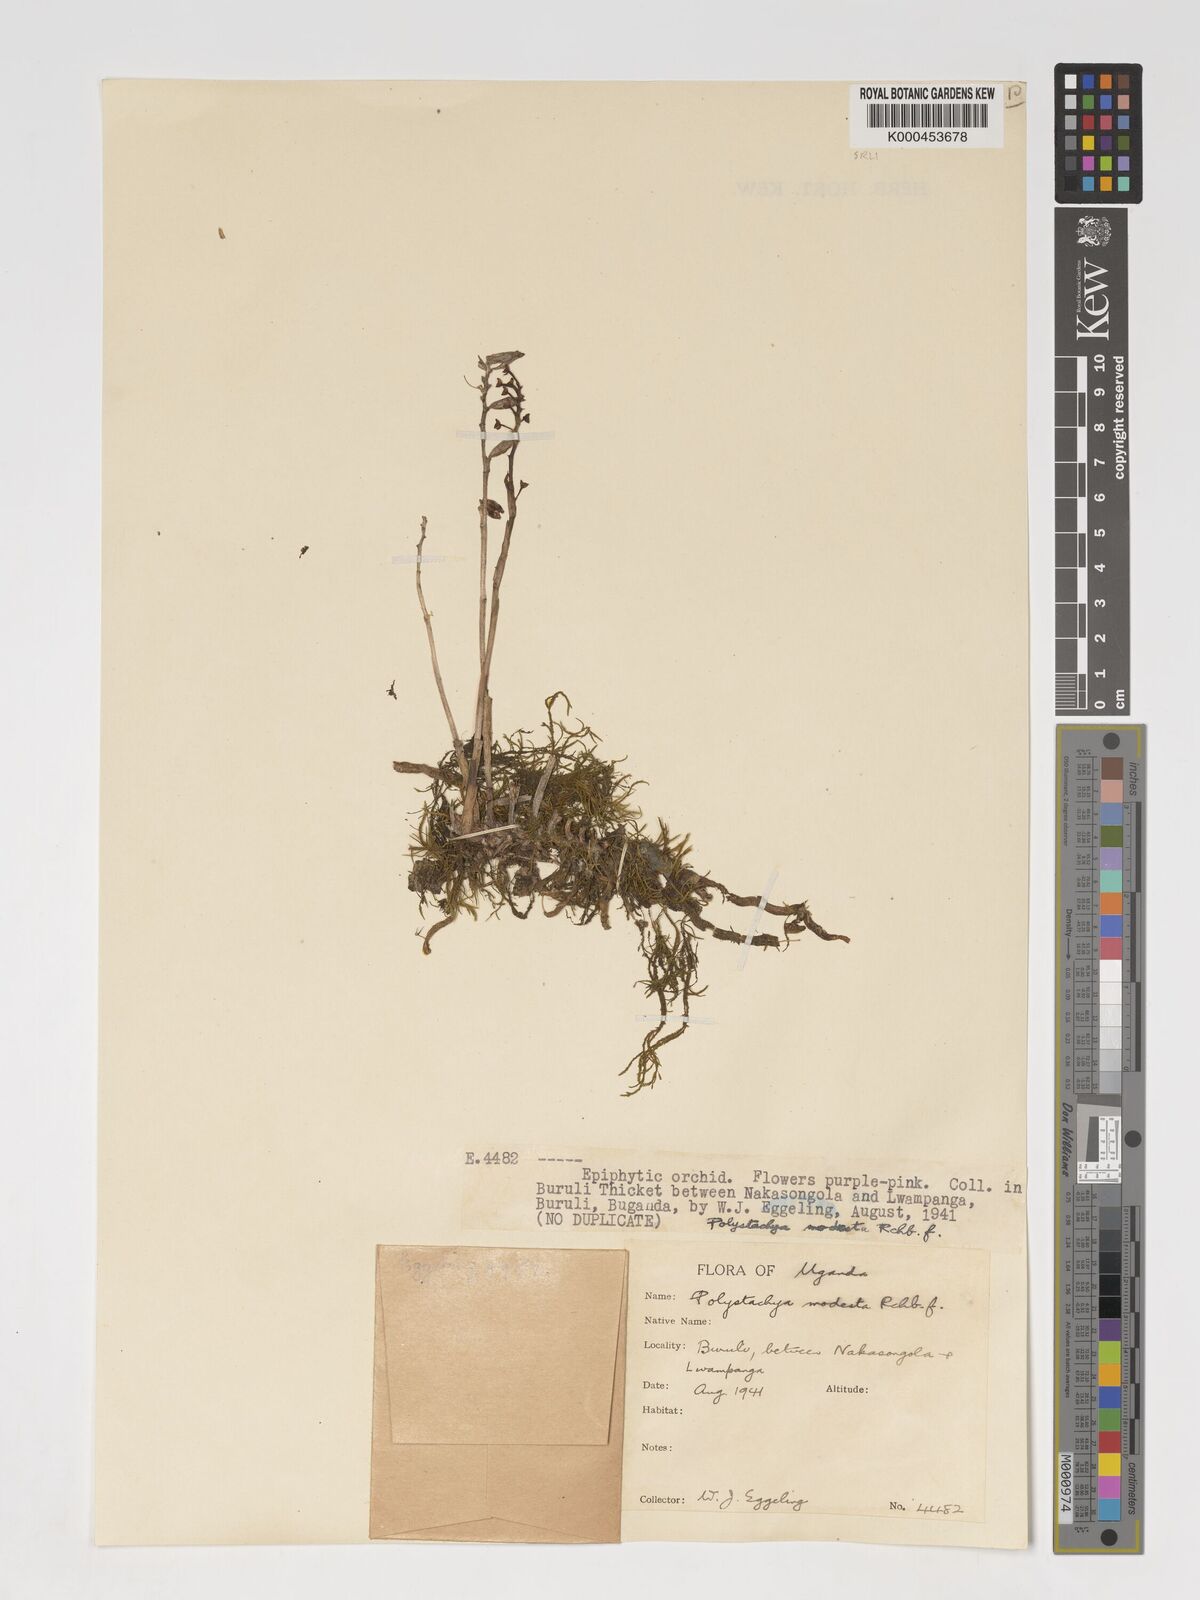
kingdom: Plantae
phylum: Tracheophyta
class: Liliopsida
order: Asparagales
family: Orchidaceae
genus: Polystachya
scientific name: Polystachya modesta
